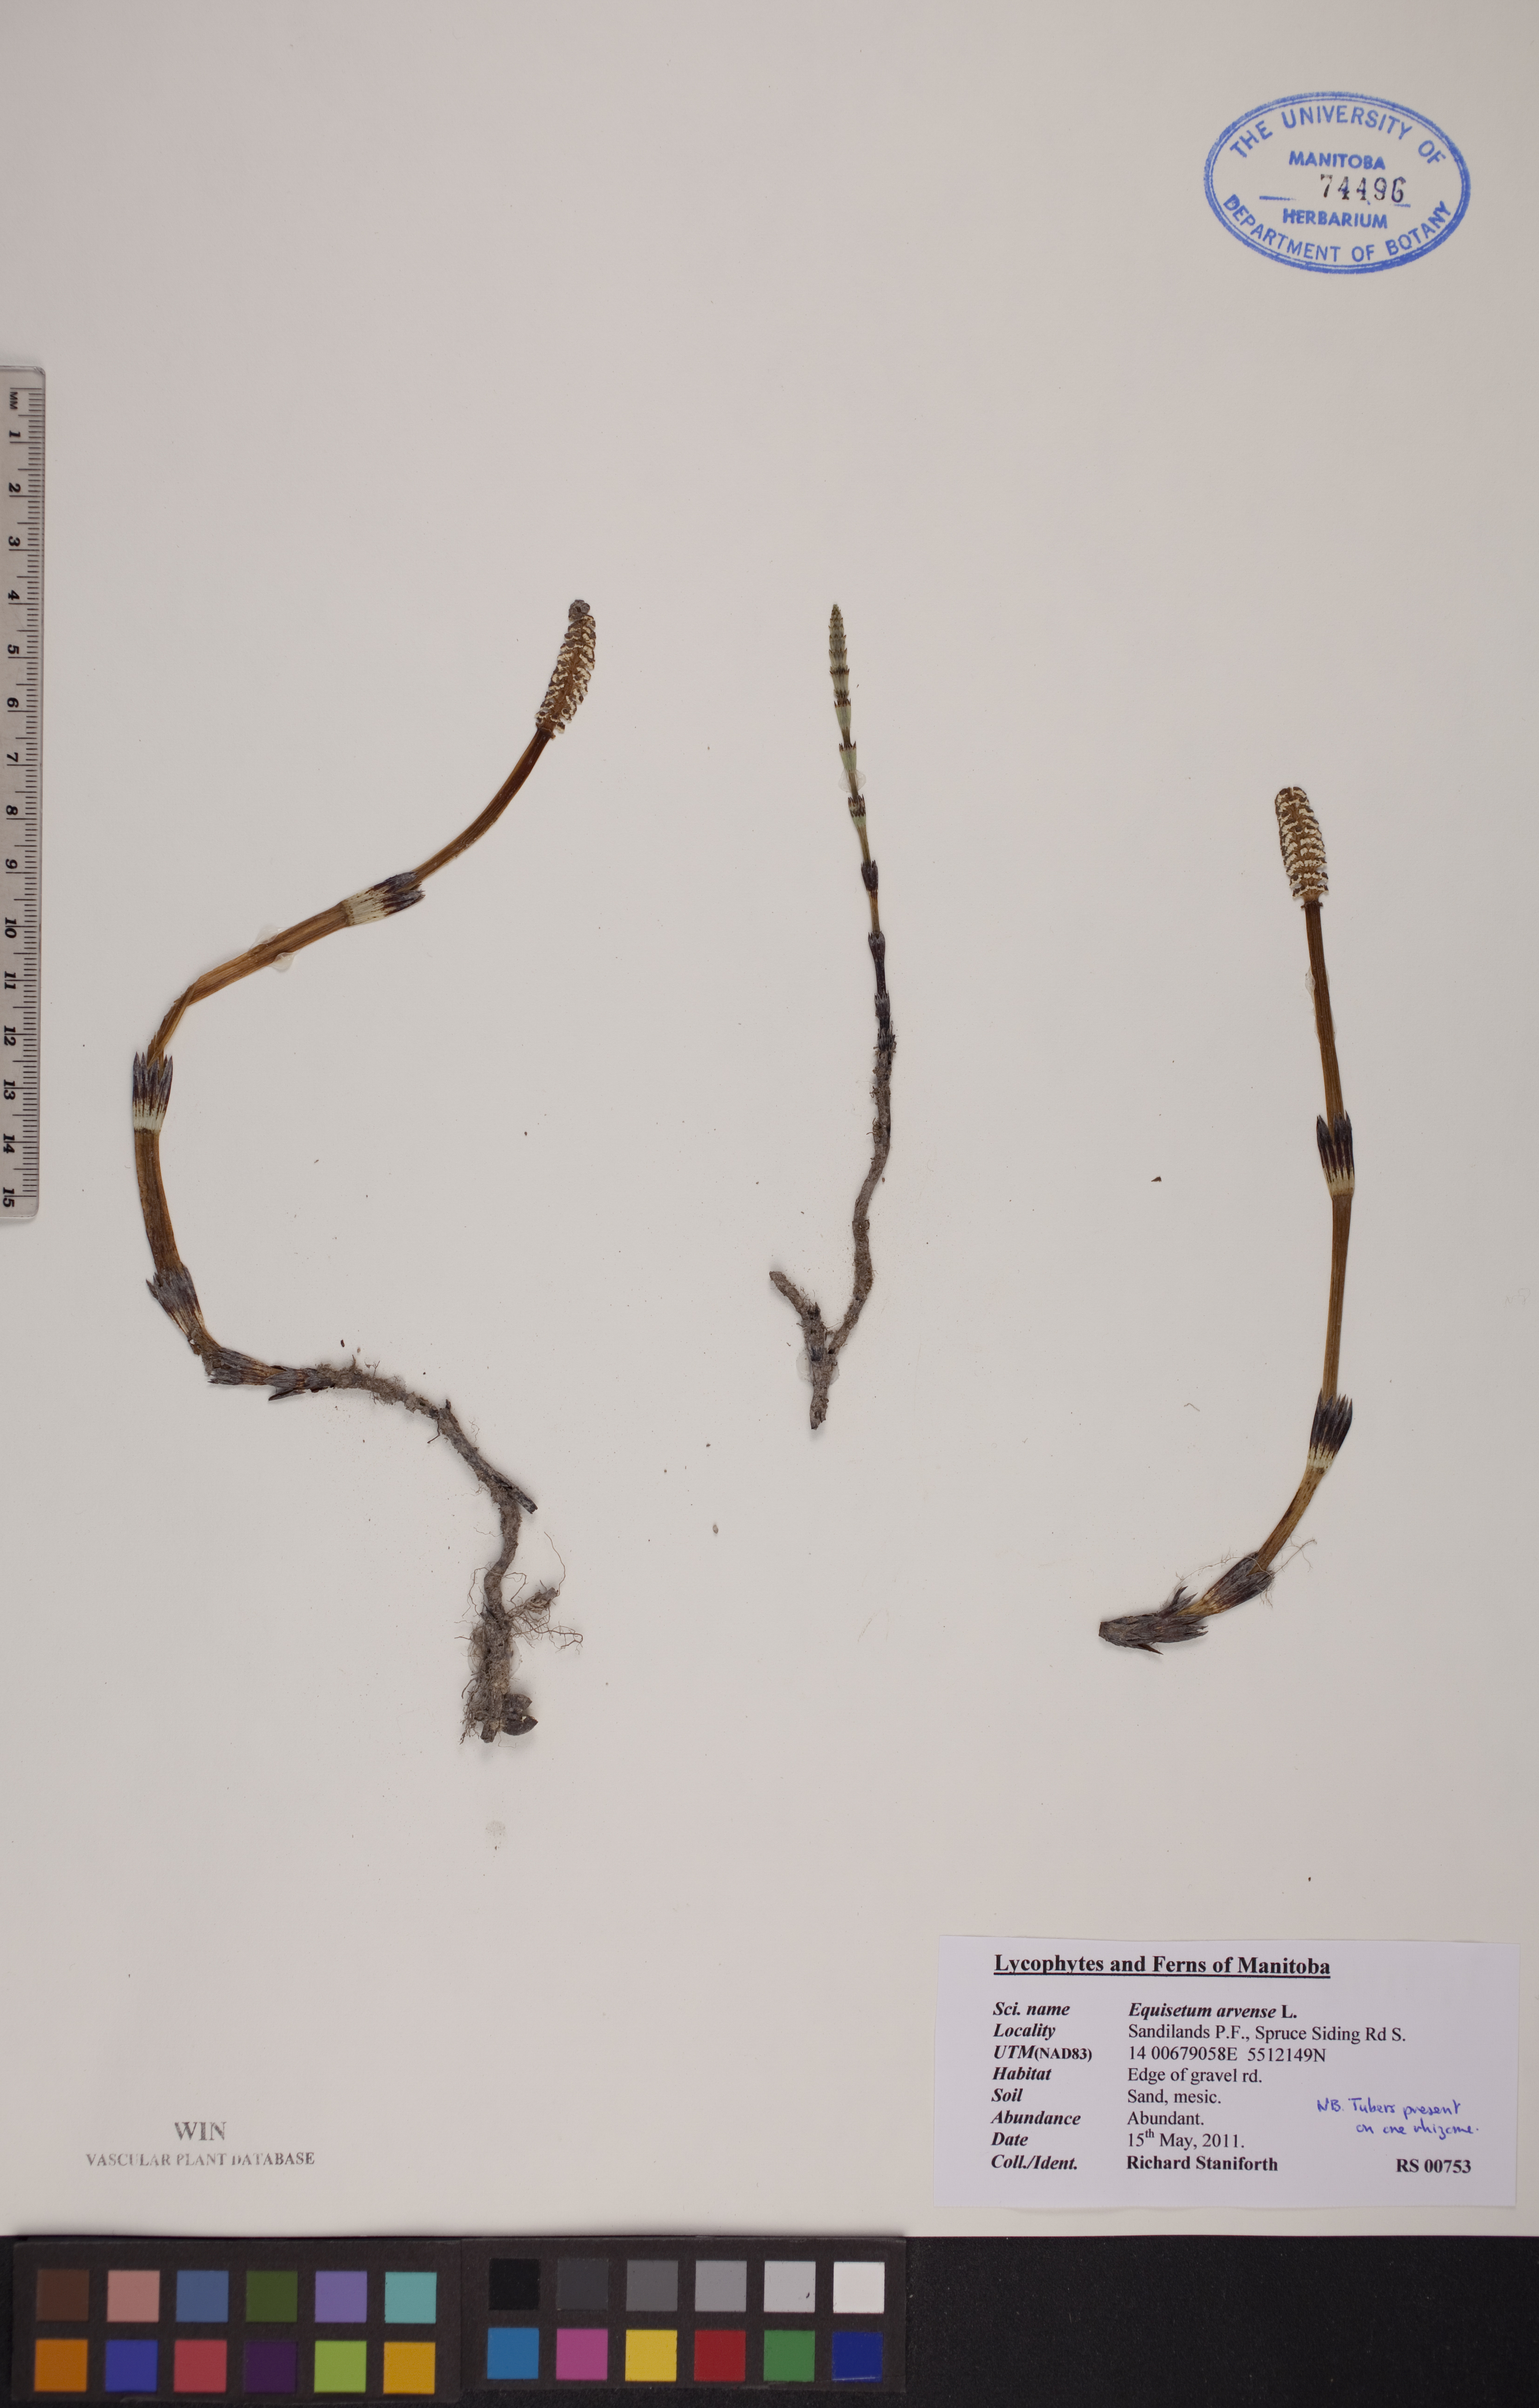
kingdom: Plantae
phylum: Tracheophyta
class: Polypodiopsida
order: Equisetales
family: Equisetaceae
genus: Equisetum
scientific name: Equisetum arvense
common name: Field horsetail
